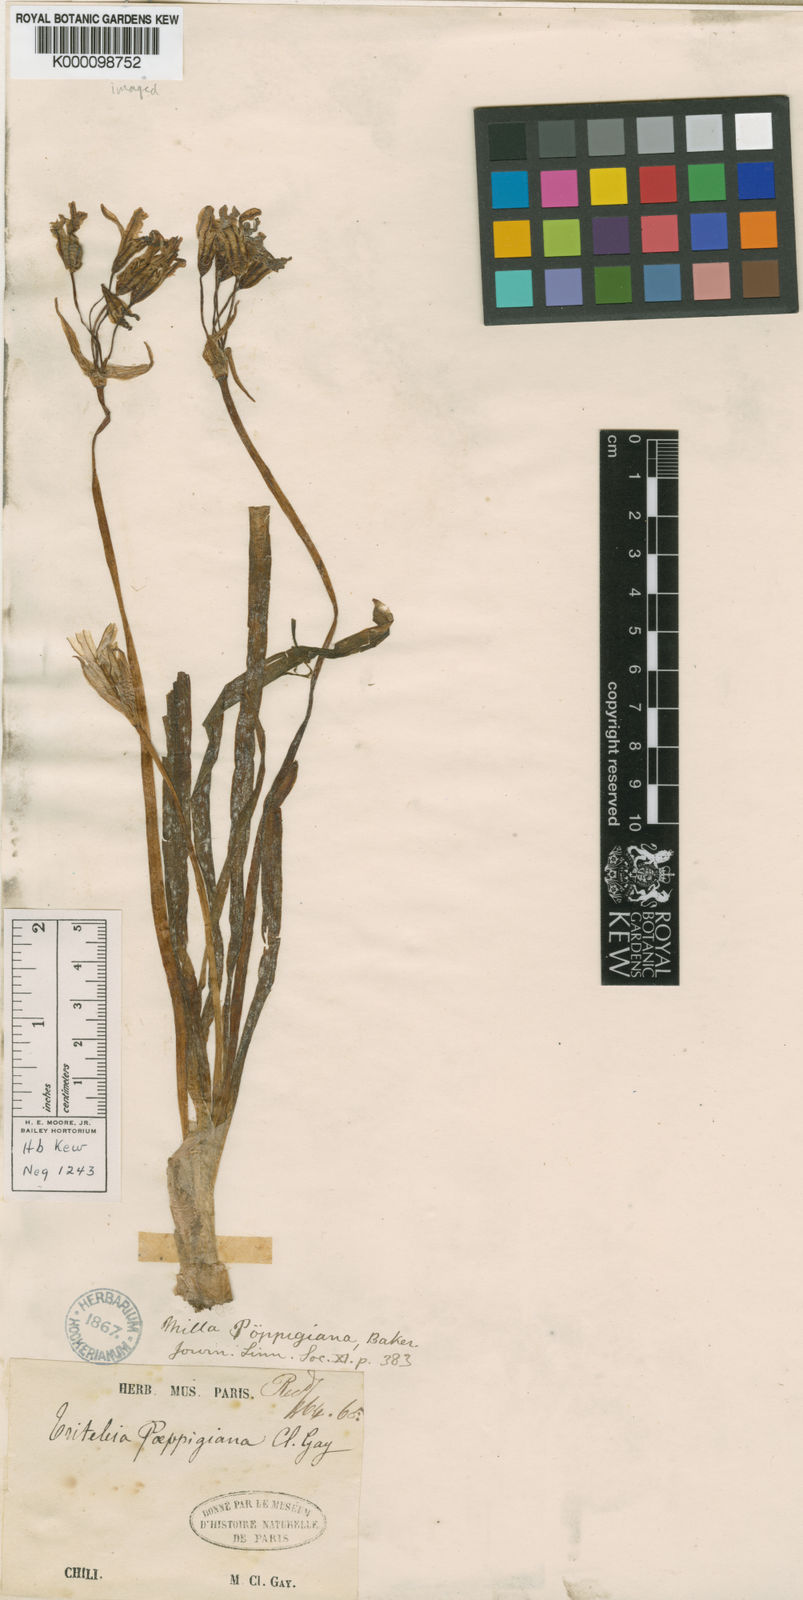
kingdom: Plantae
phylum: Tracheophyta
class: Liliopsida
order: Asparagales
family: Amaryllidaceae
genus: Tristagma
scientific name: Tristagma poeppigianum
